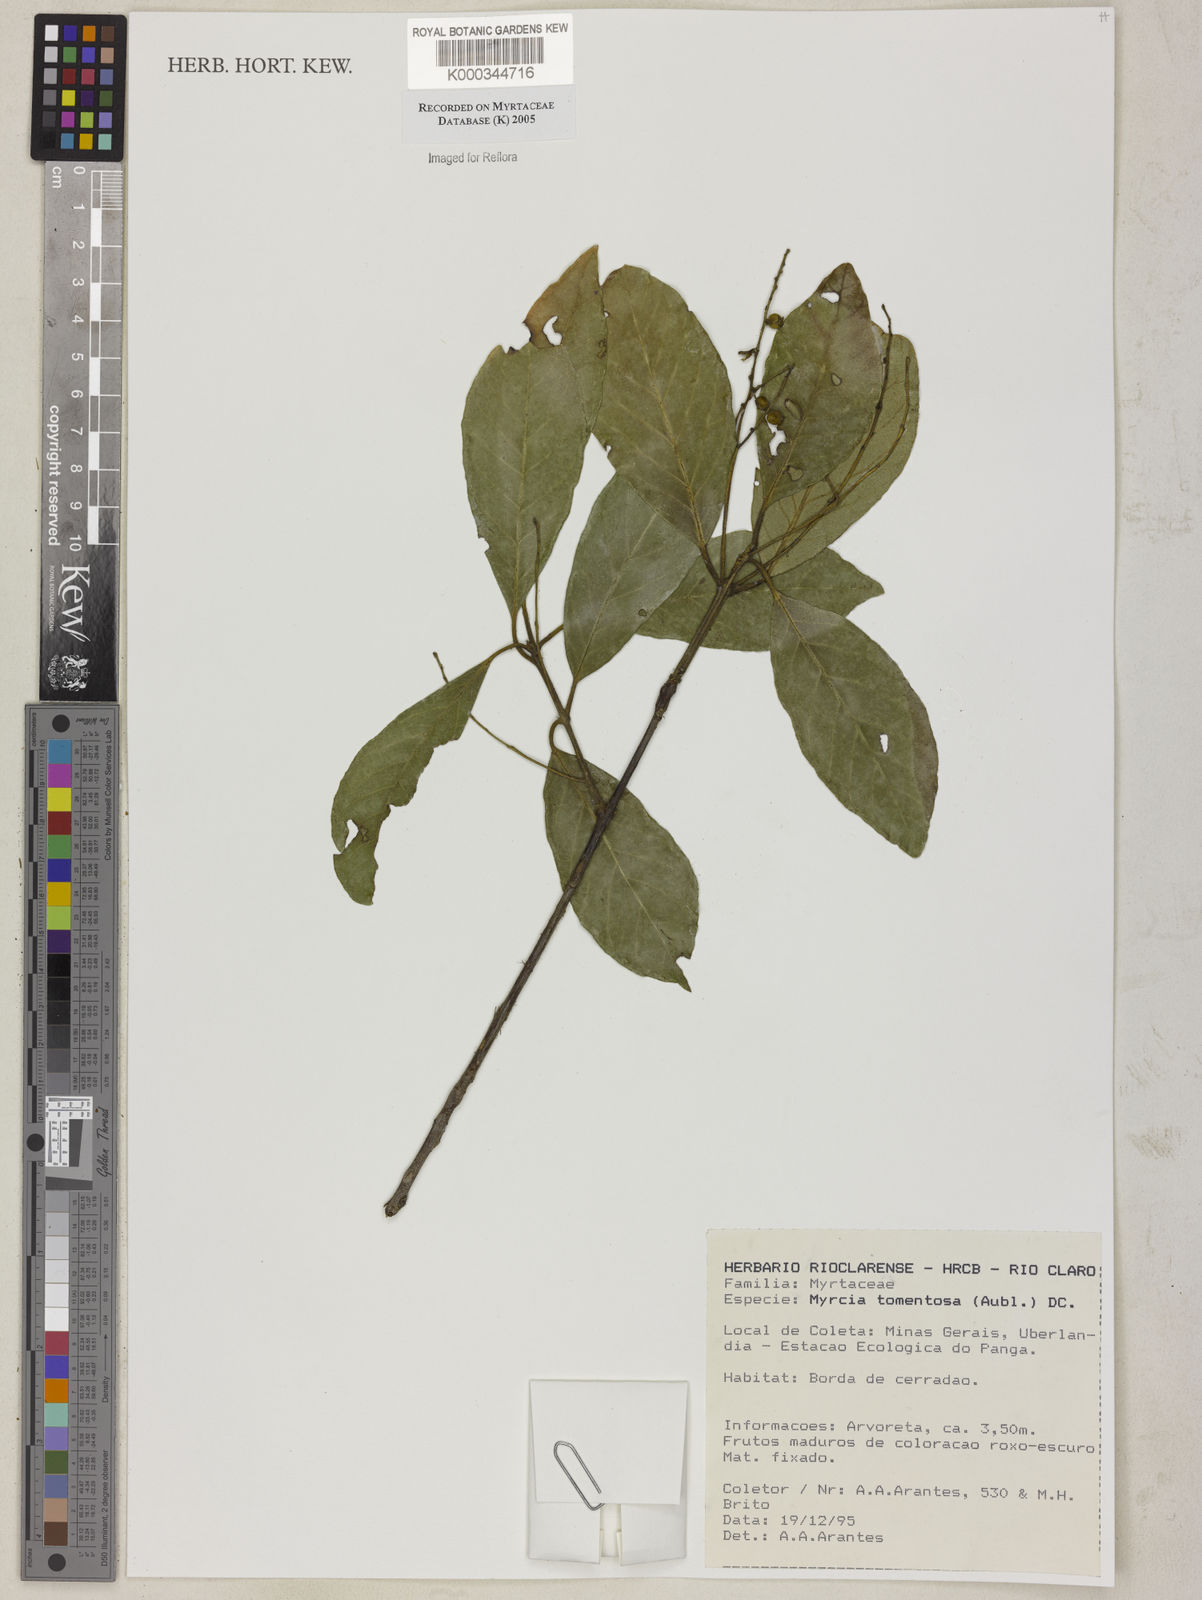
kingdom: Plantae
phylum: Tracheophyta
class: Magnoliopsida
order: Myrtales
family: Myrtaceae
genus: Myrcia
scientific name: Myrcia tomentosa
